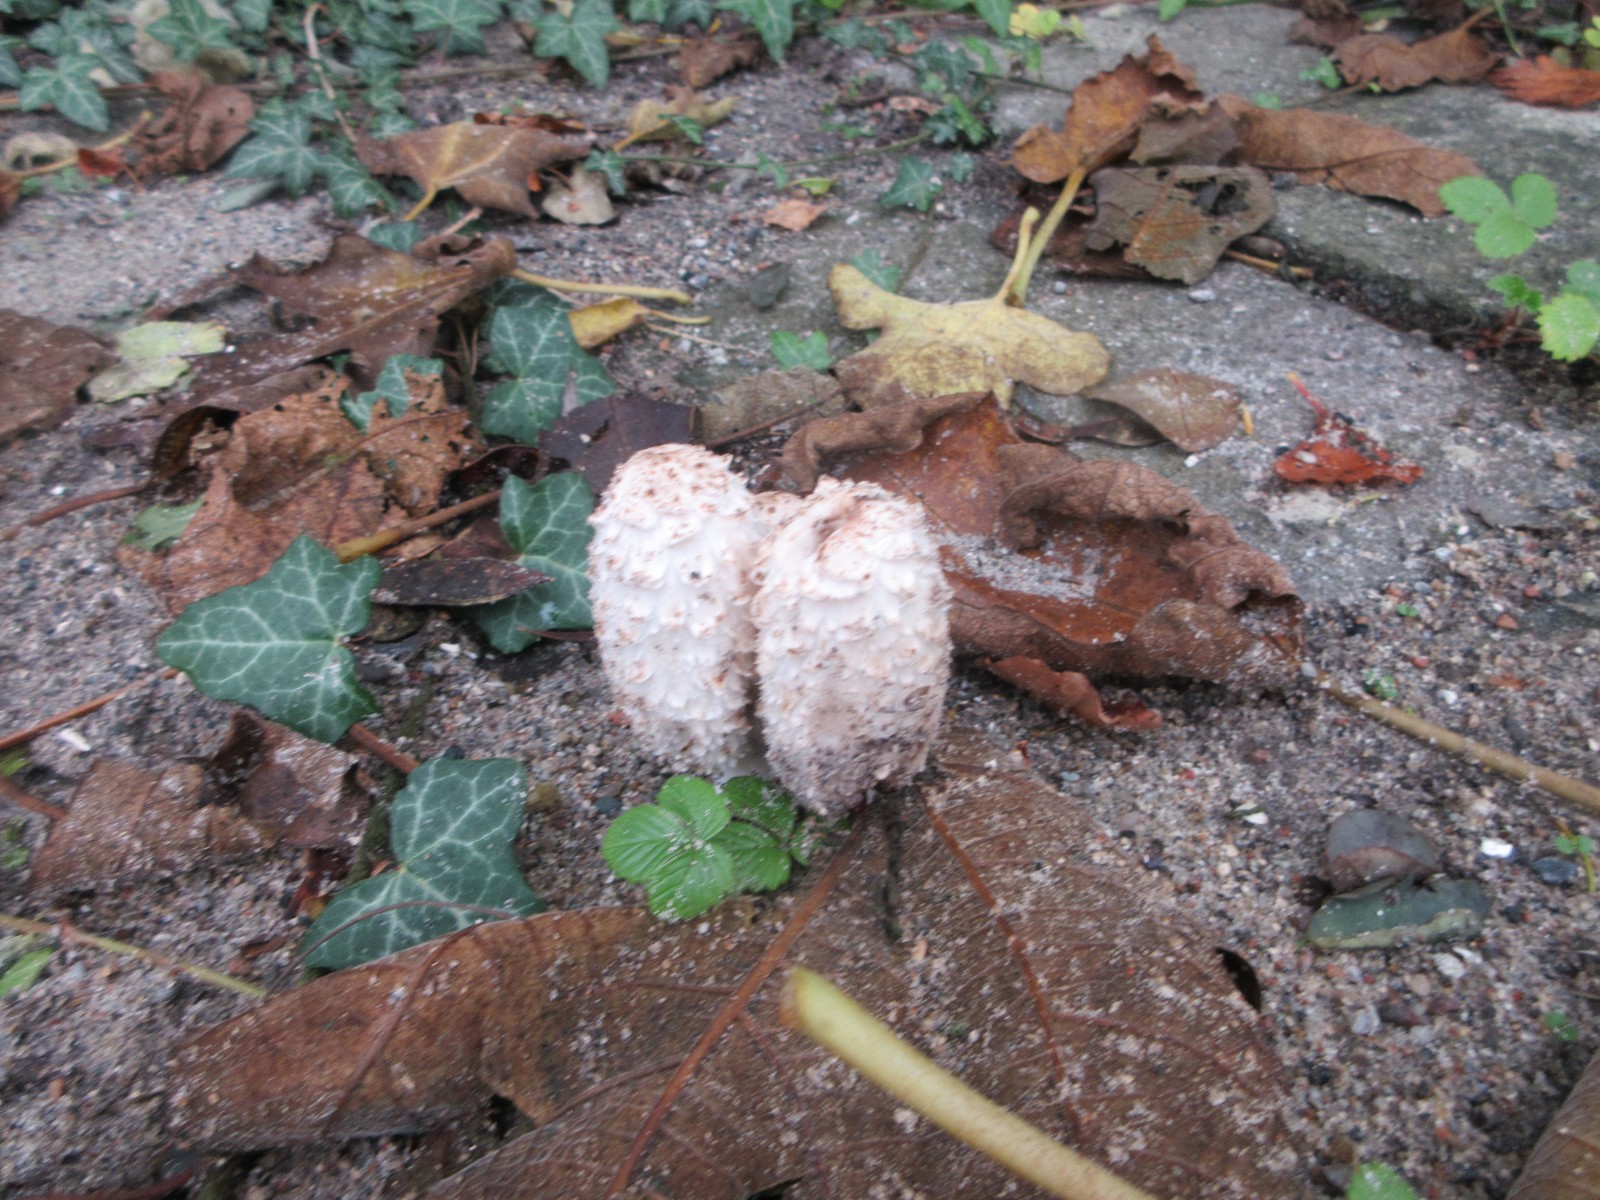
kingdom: Fungi
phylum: Basidiomycota
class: Agaricomycetes
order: Agaricales
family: Agaricaceae
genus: Coprinus
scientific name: Coprinus comatus
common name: stor parykhat
